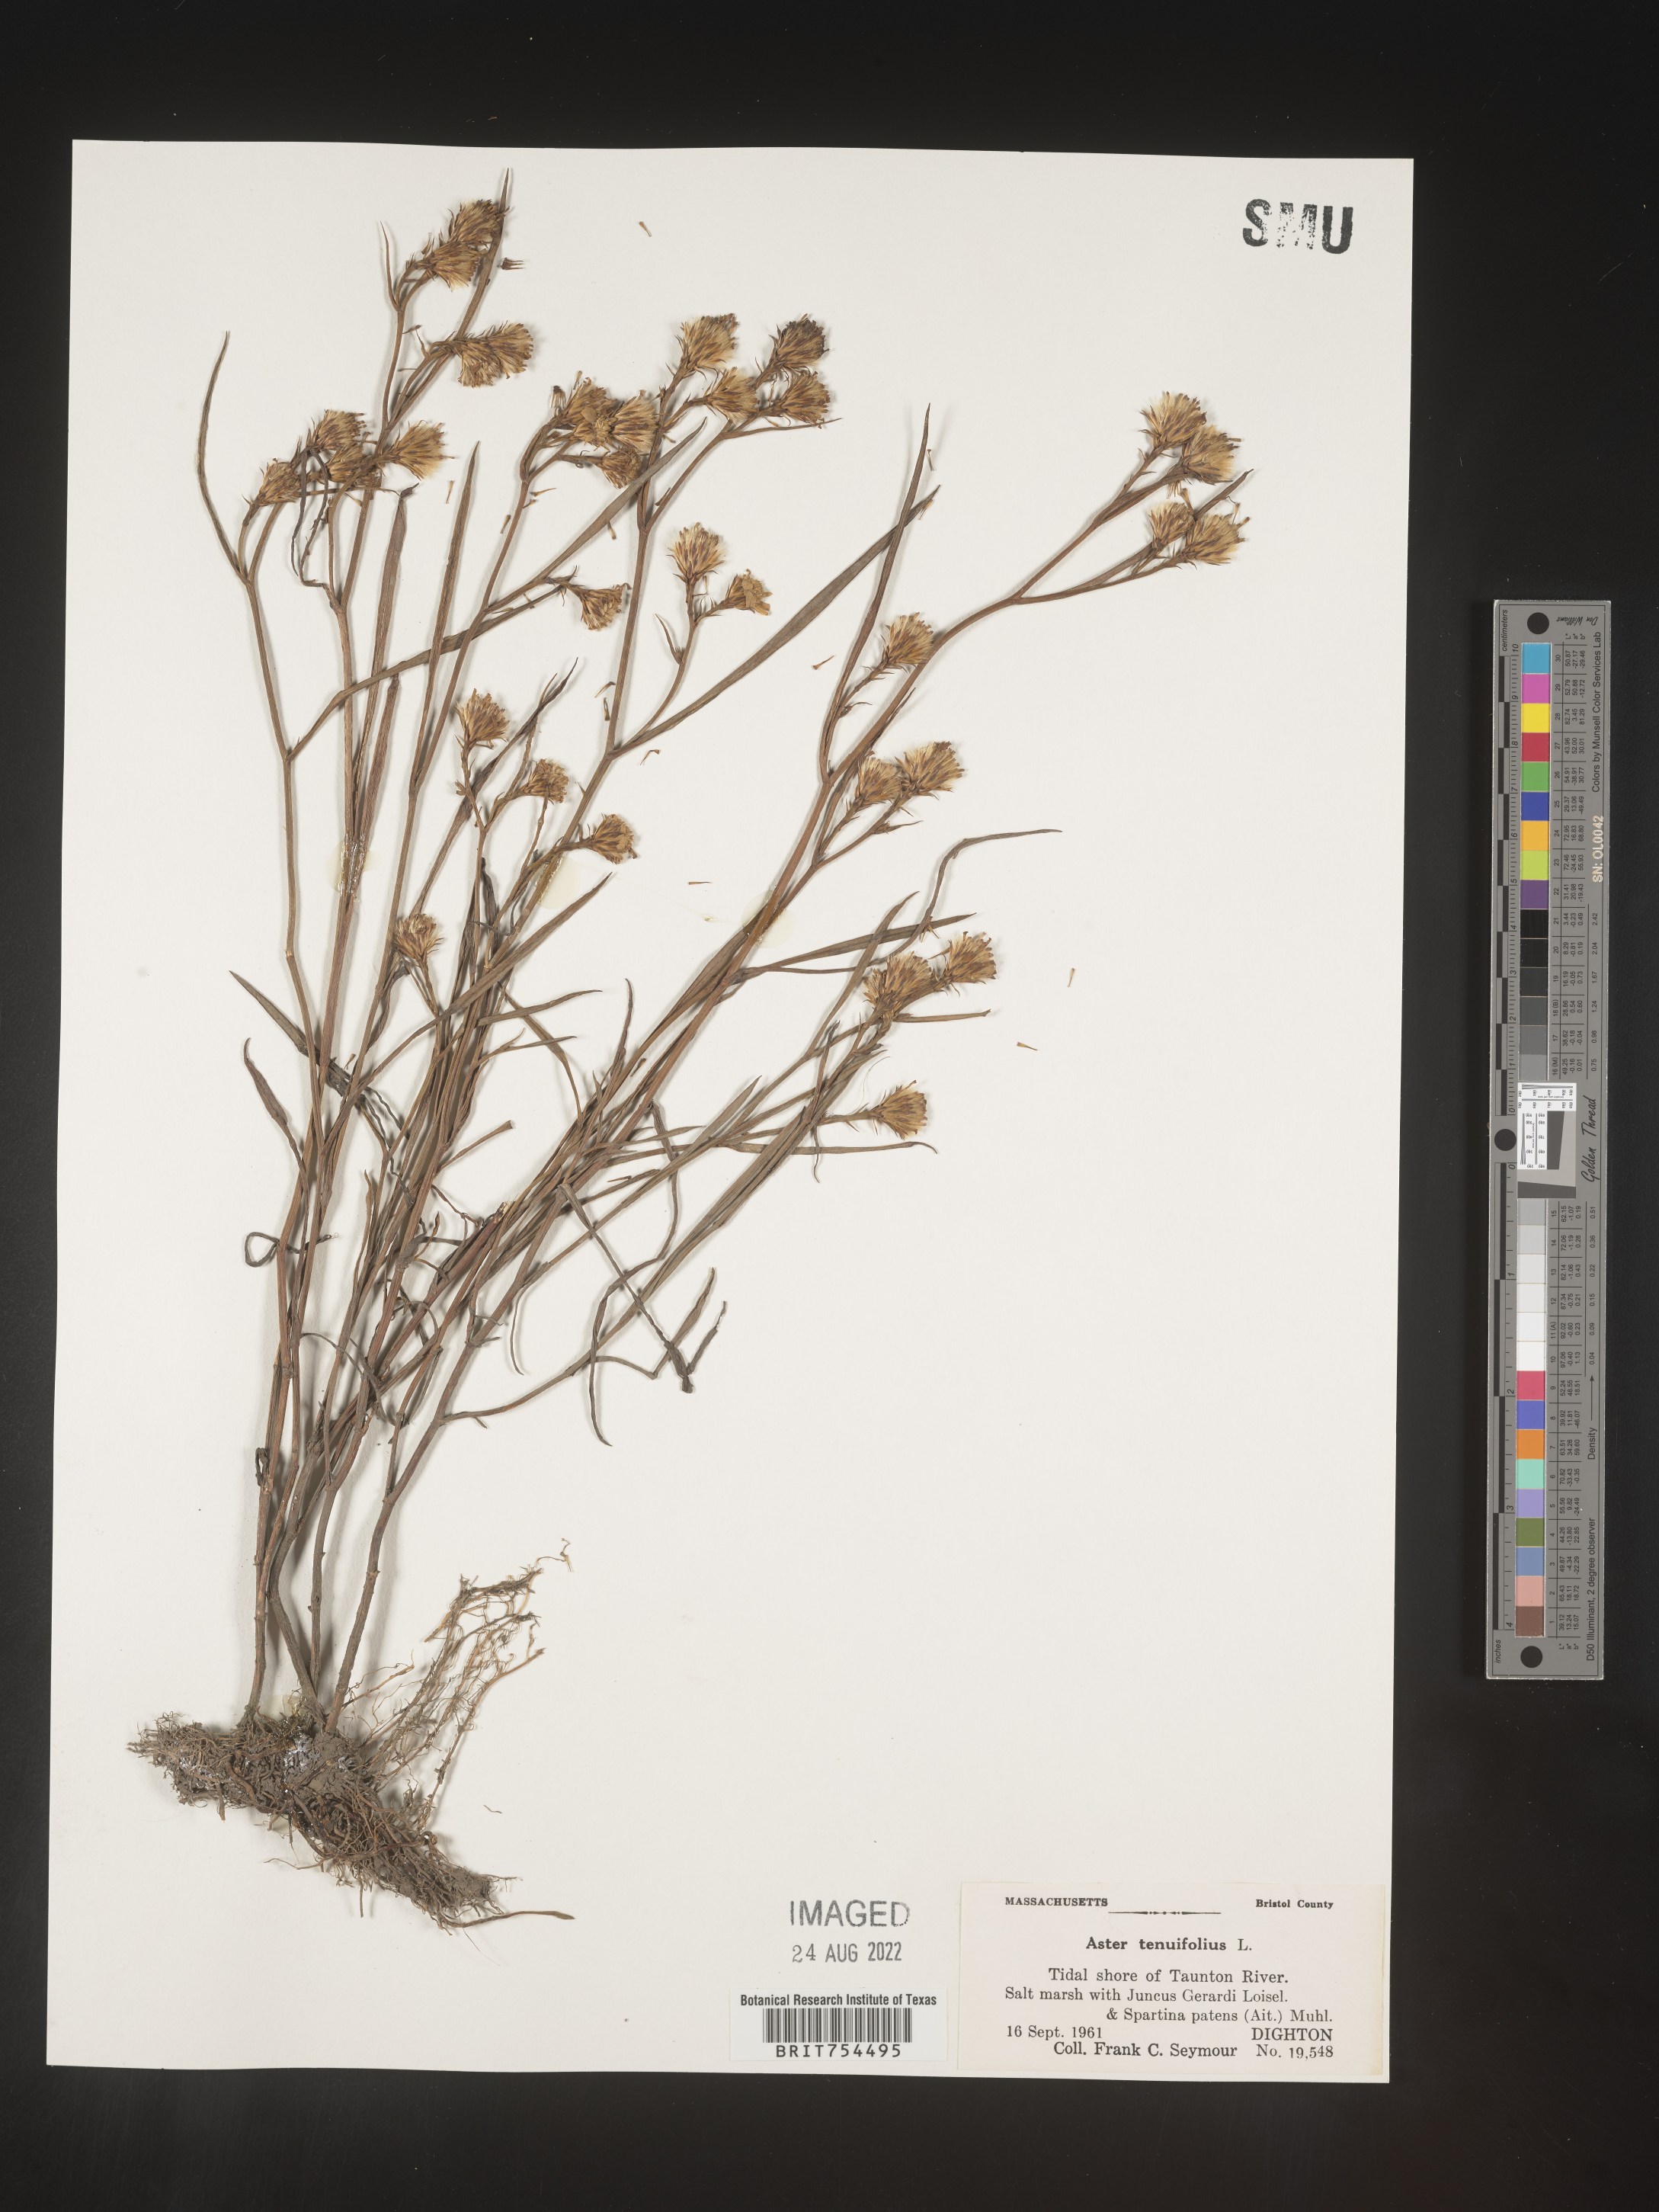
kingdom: Plantae
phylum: Tracheophyta
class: Magnoliopsida
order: Asterales
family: Asteraceae
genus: Symphyotrichum
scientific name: Symphyotrichum tenuifolium
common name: Perennial salt-marsh aster
